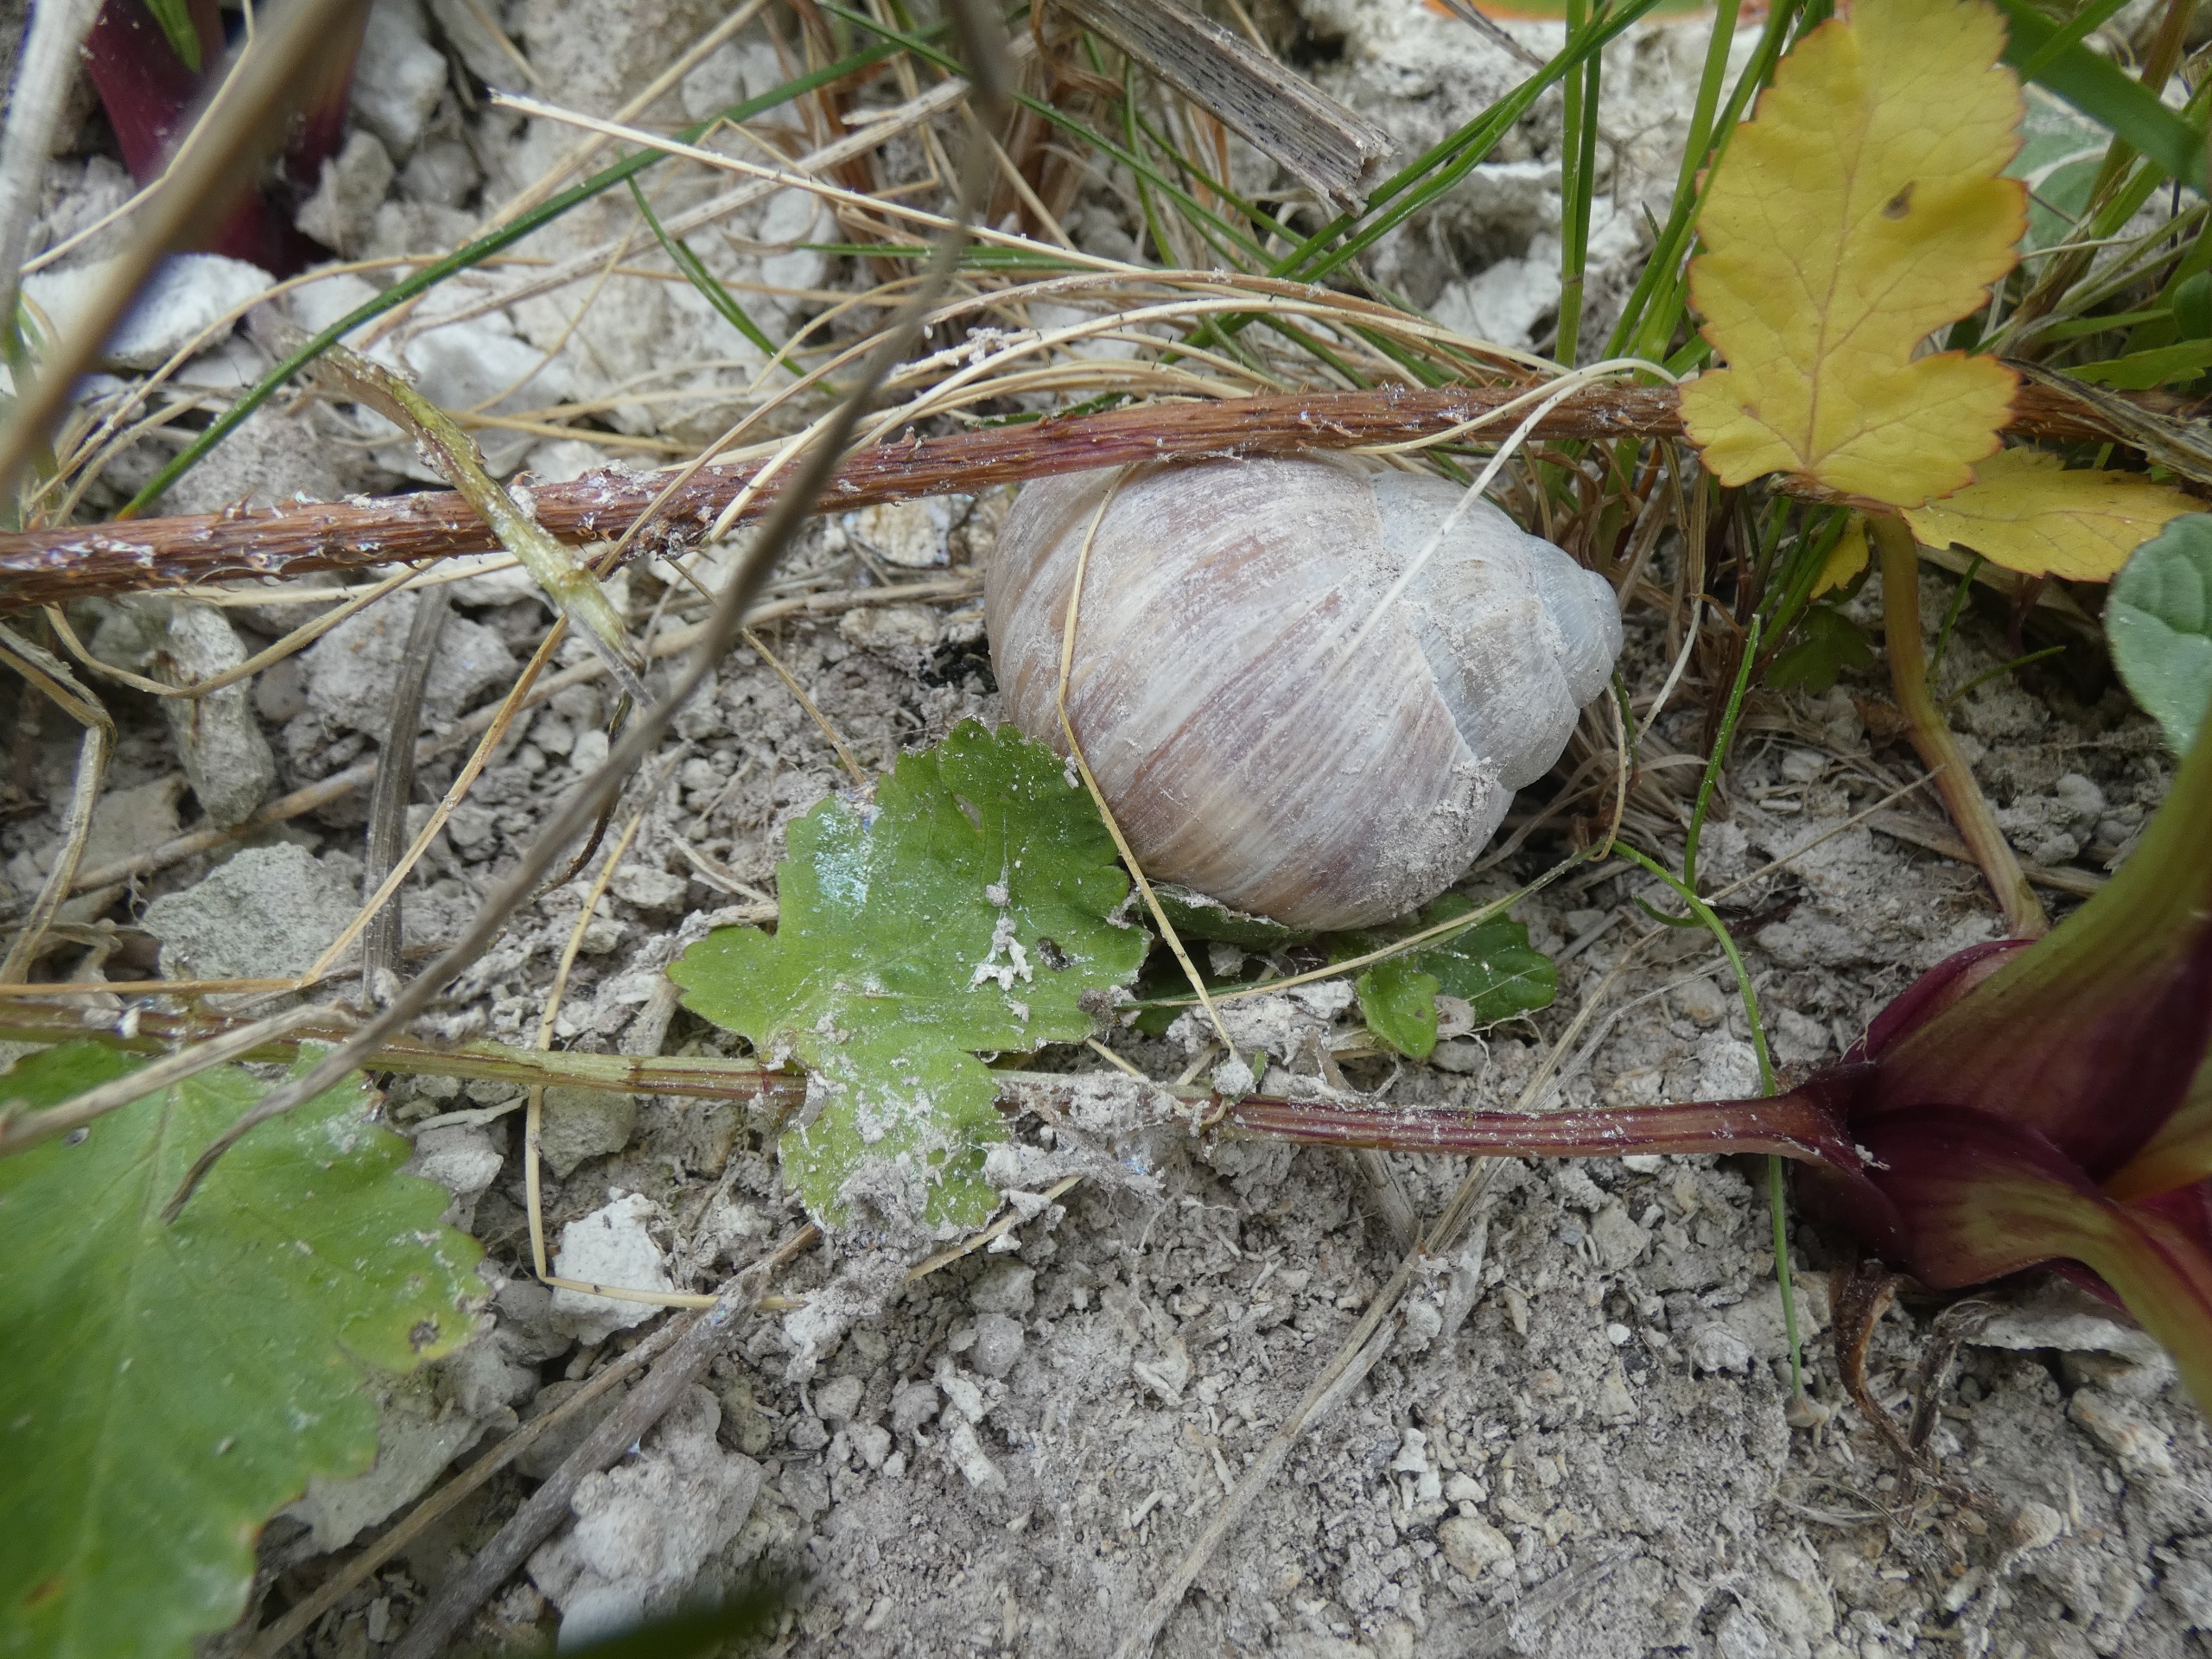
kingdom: Animalia
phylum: Mollusca
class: Gastropoda
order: Stylommatophora
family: Helicidae
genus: Helix
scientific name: Helix pomatia
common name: Vinbjergsnegl
